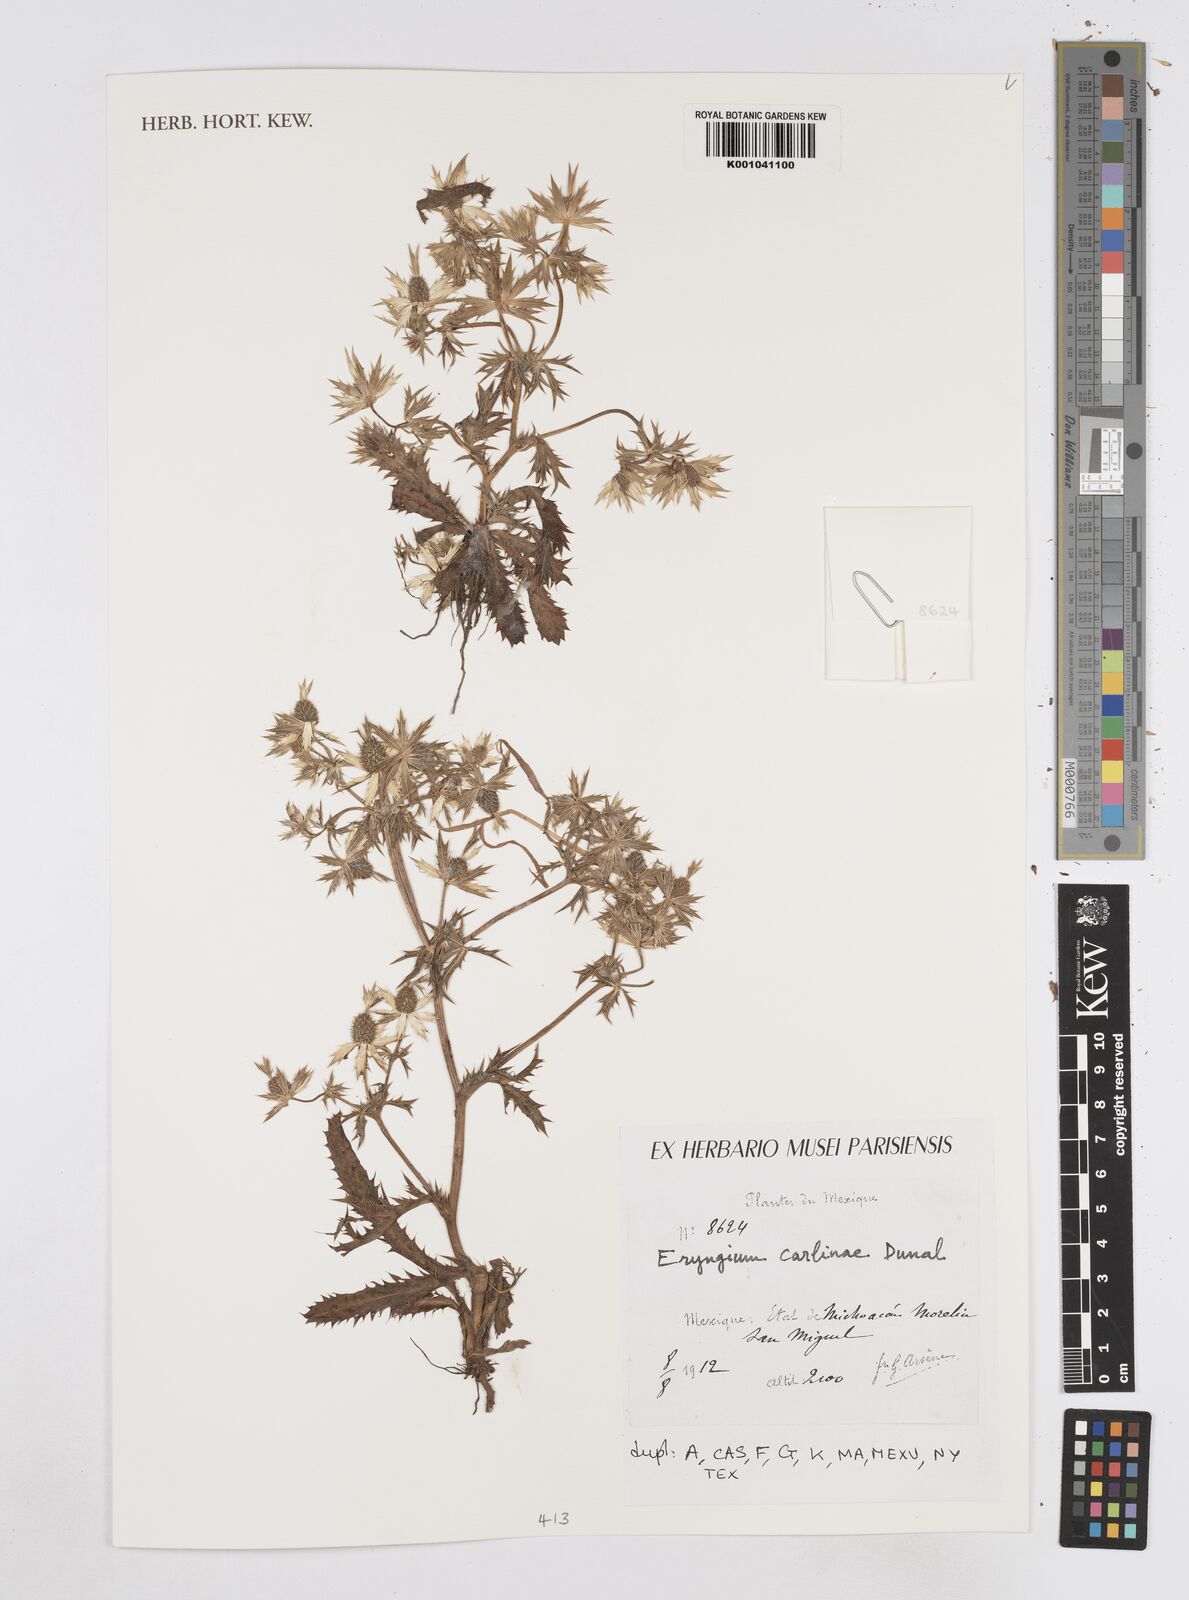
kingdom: Plantae
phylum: Tracheophyta
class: Magnoliopsida
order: Apiales
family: Apiaceae
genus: Eryngium
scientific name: Eryngium carlinae
